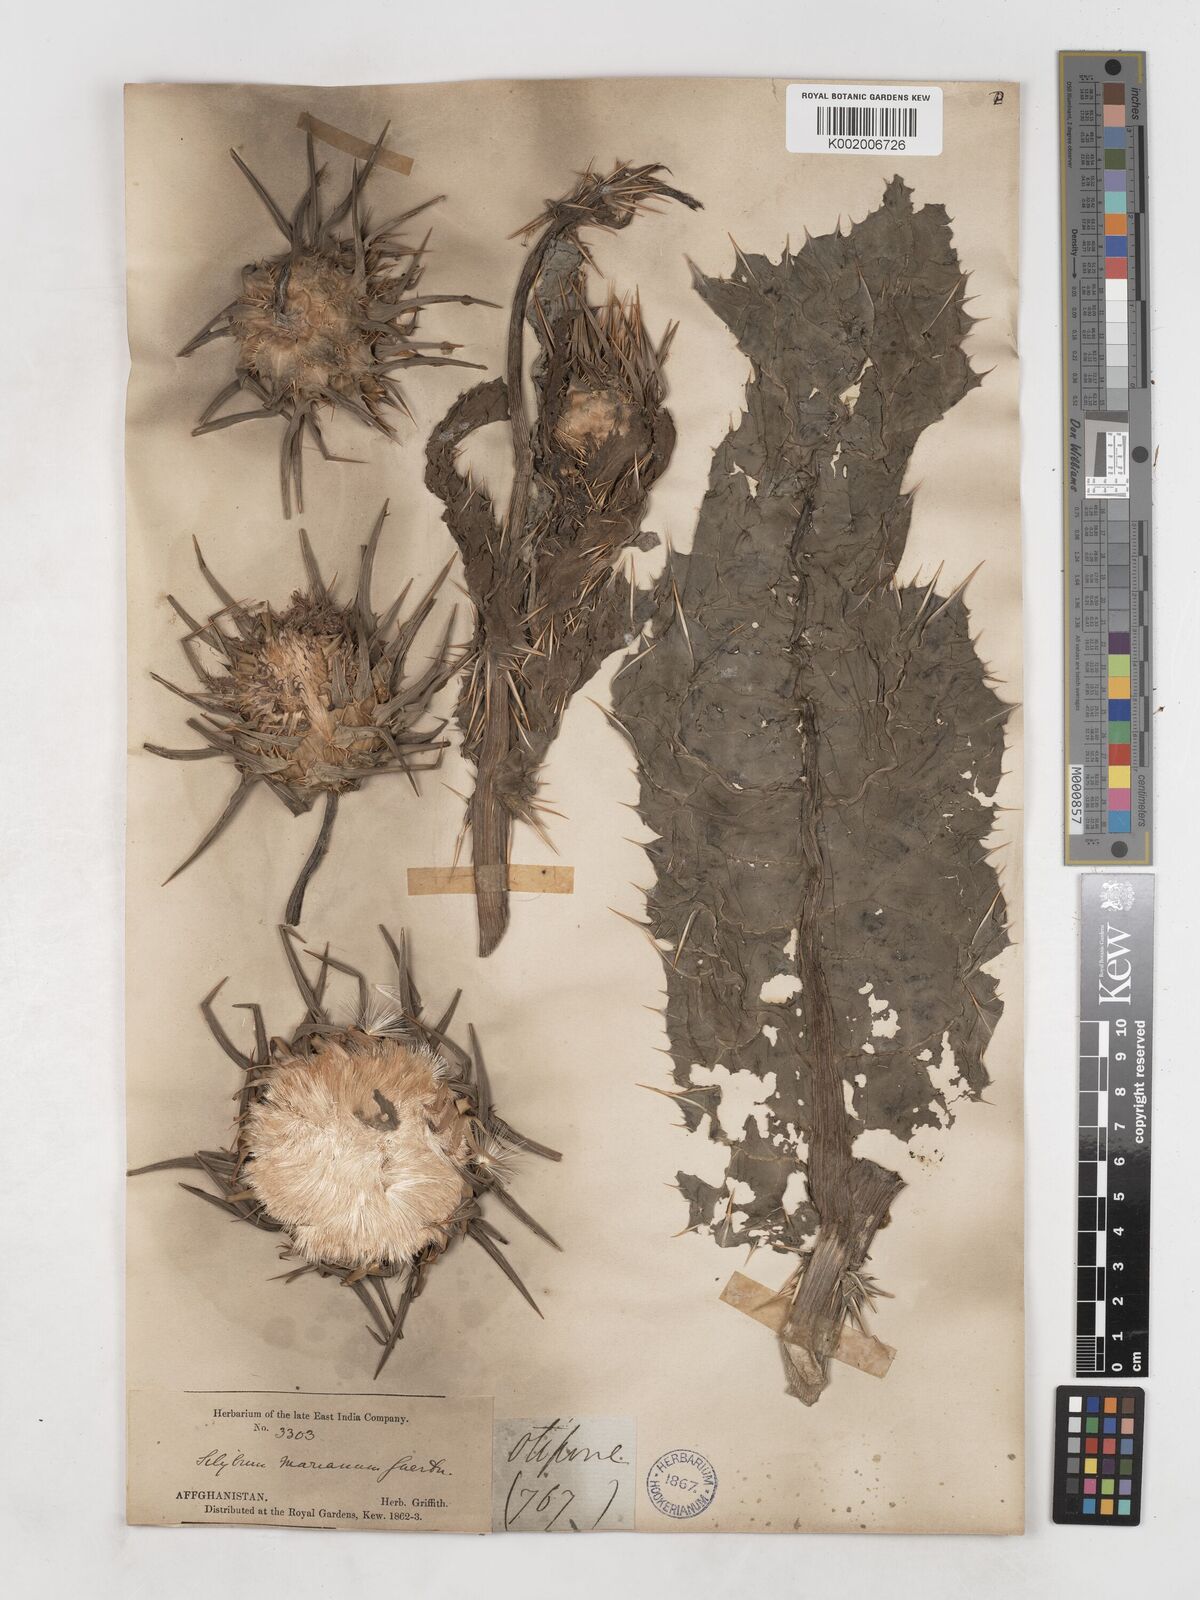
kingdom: Plantae
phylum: Tracheophyta
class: Magnoliopsida
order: Asterales
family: Asteraceae
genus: Silybum
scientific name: Silybum marianum
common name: Milk thistle
